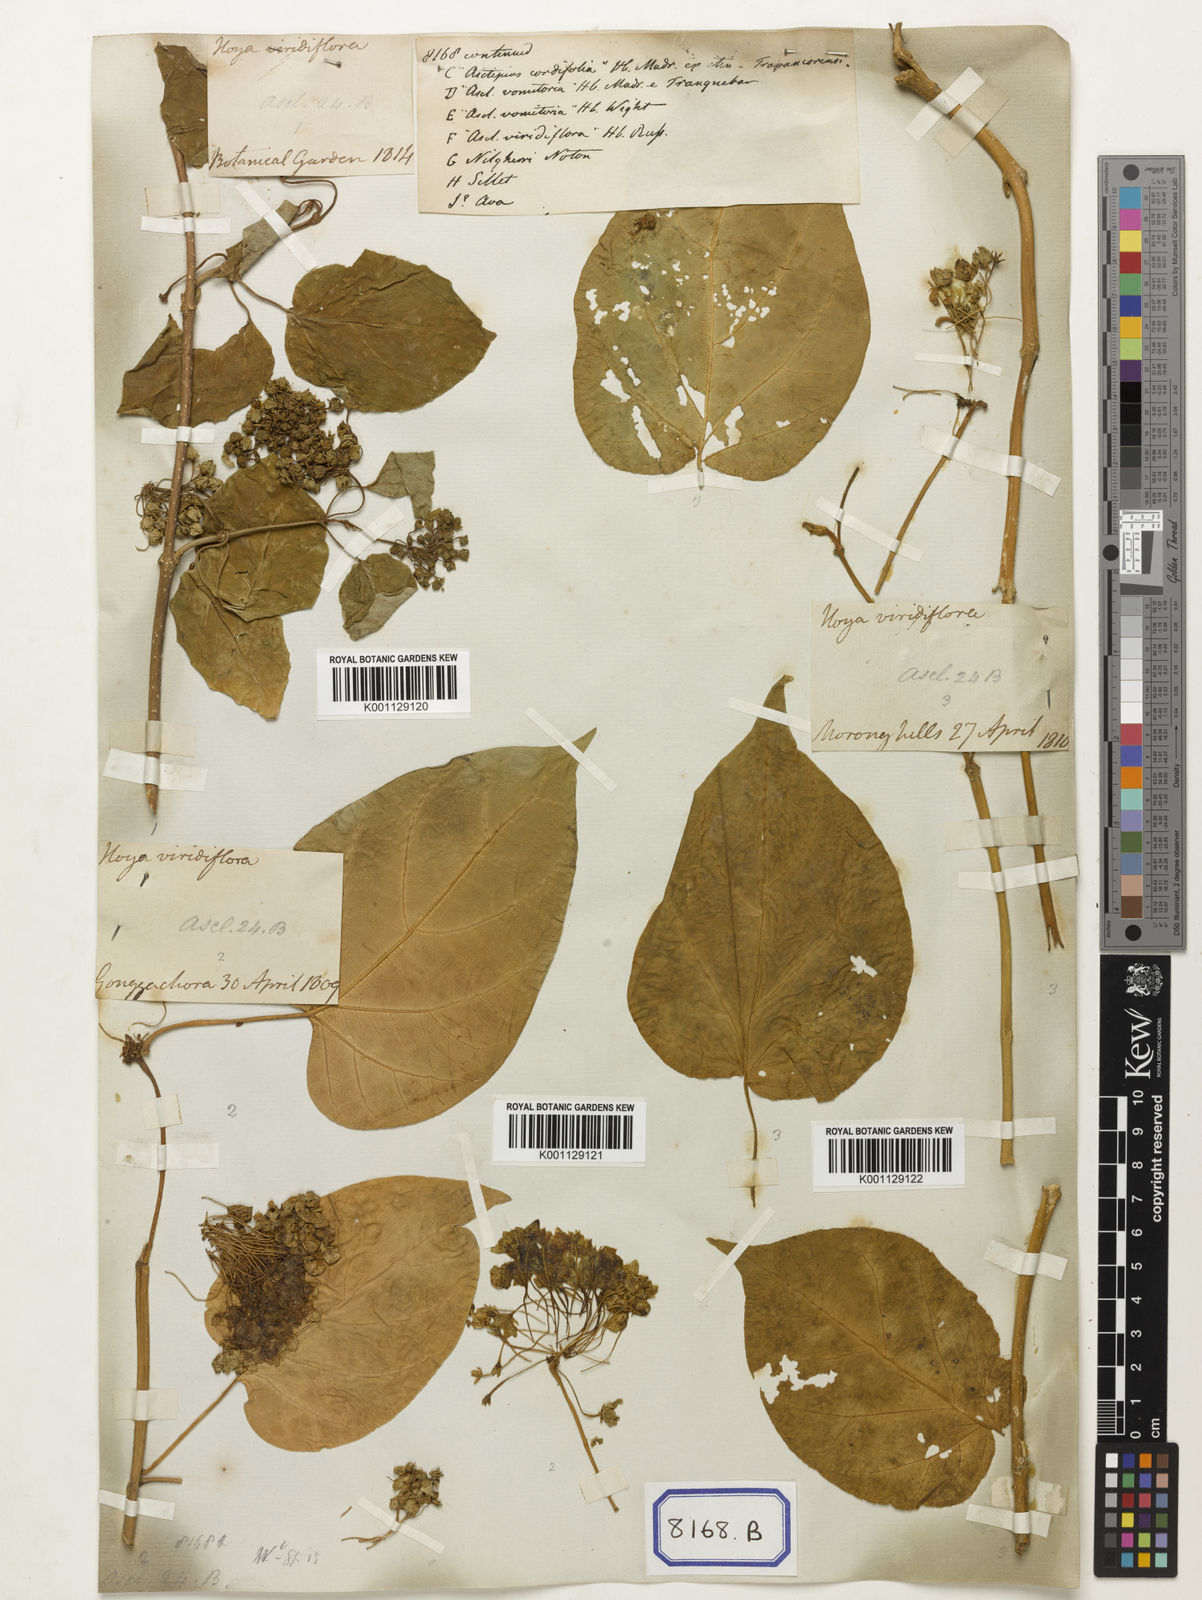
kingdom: Plantae
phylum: Tracheophyta
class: Magnoliopsida
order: Gentianales
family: Apocynaceae
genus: Stephanotis
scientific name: Stephanotis volubilis
